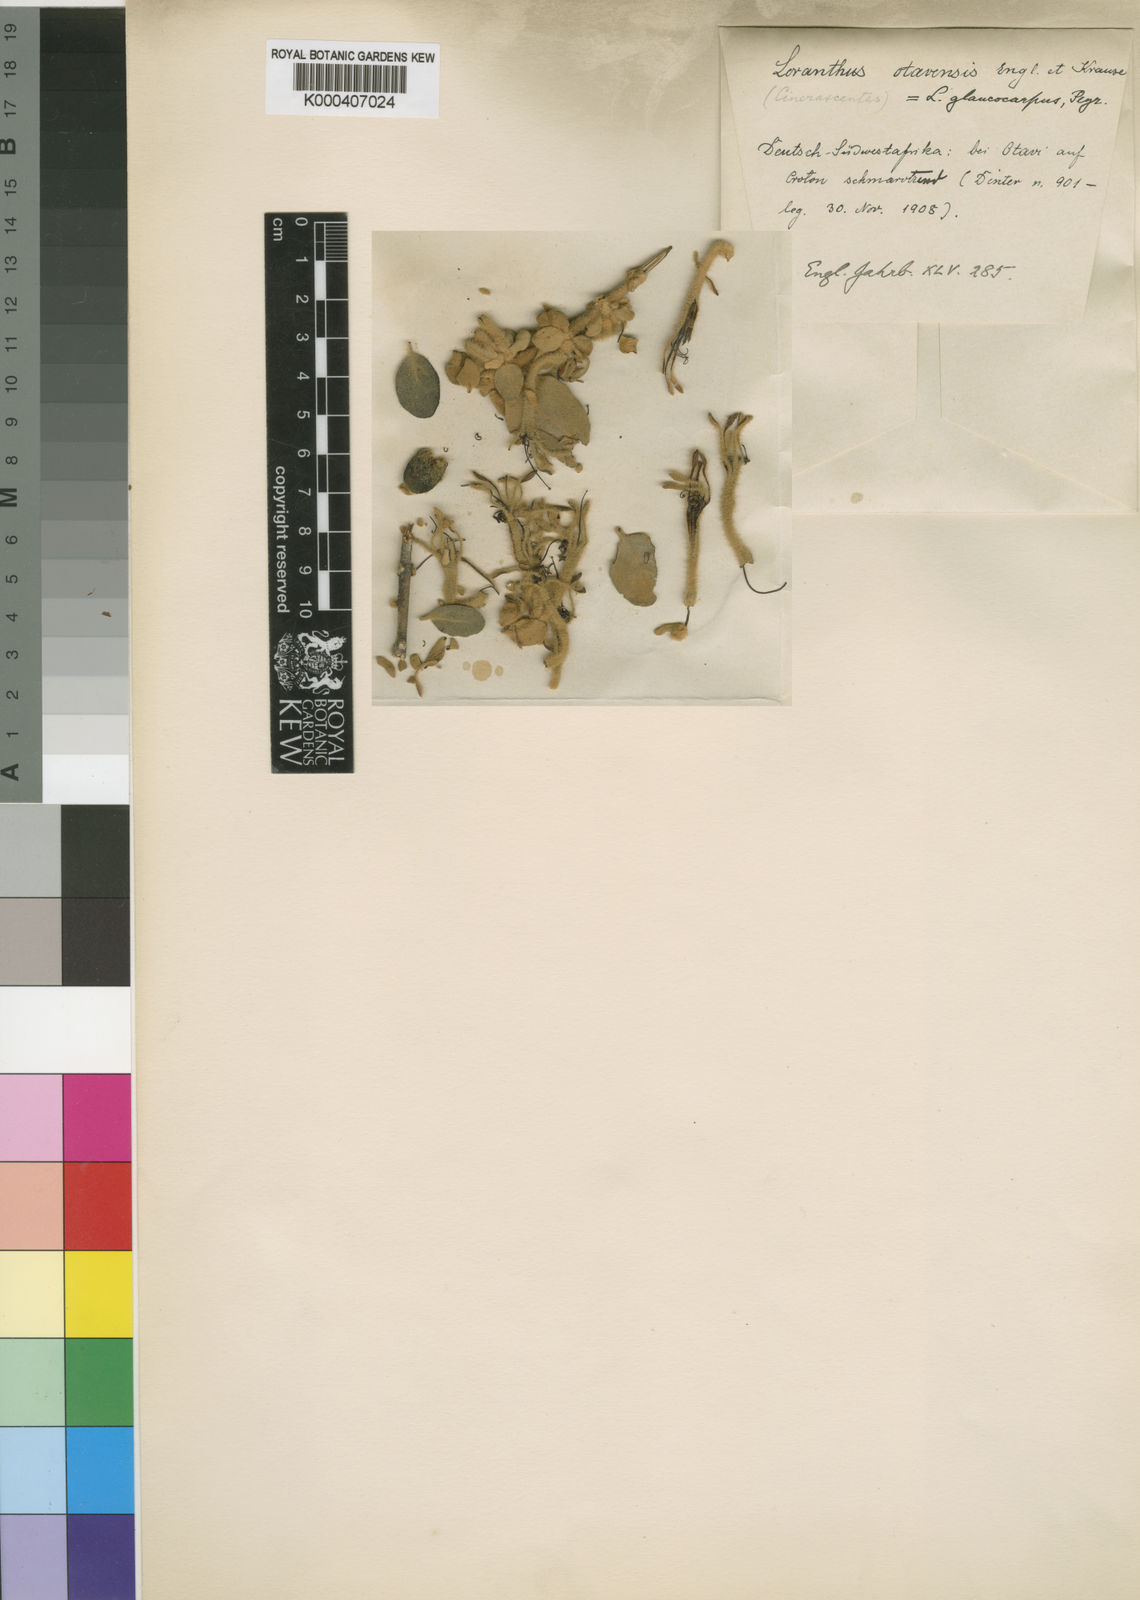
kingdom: Plantae
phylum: Tracheophyta
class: Magnoliopsida
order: Santalales
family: Loranthaceae
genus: Phragmanthera
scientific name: Phragmanthera glaucocarpa
